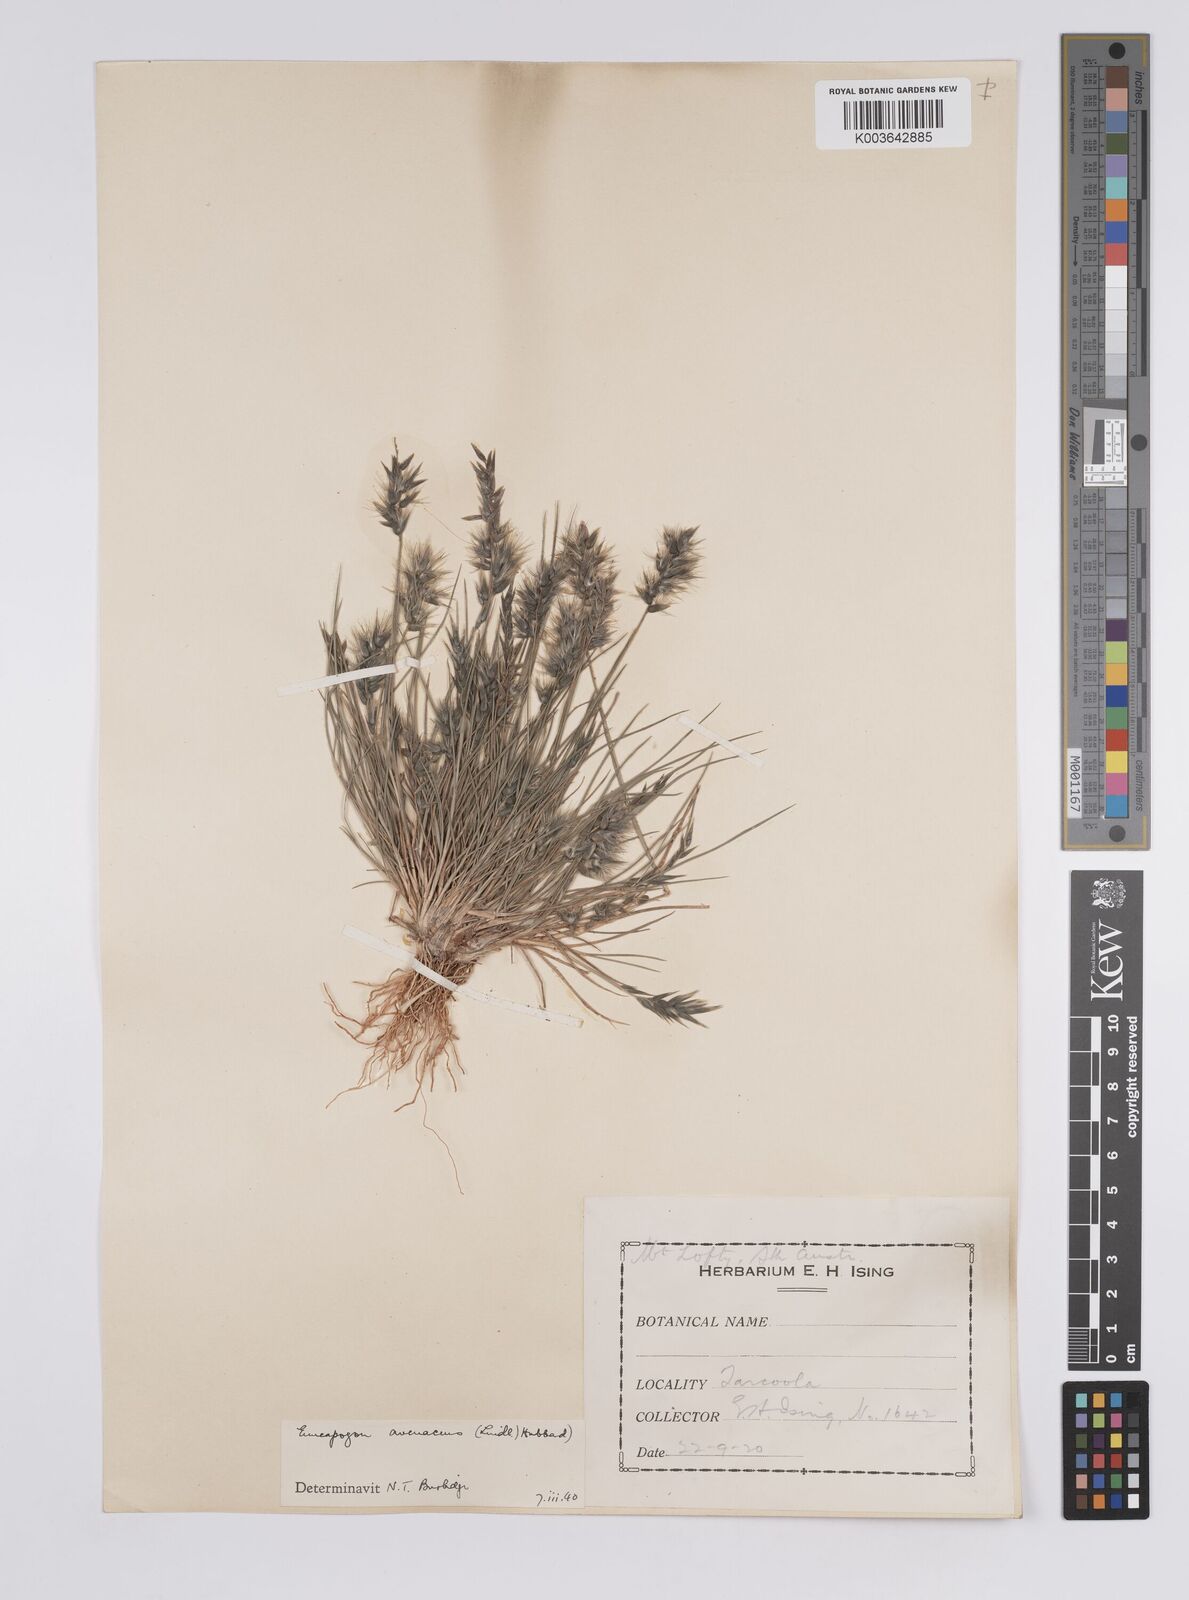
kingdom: Plantae
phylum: Tracheophyta
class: Liliopsida
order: Poales
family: Poaceae
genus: Enneapogon
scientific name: Enneapogon avenaceus
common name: Hairy oat grass
